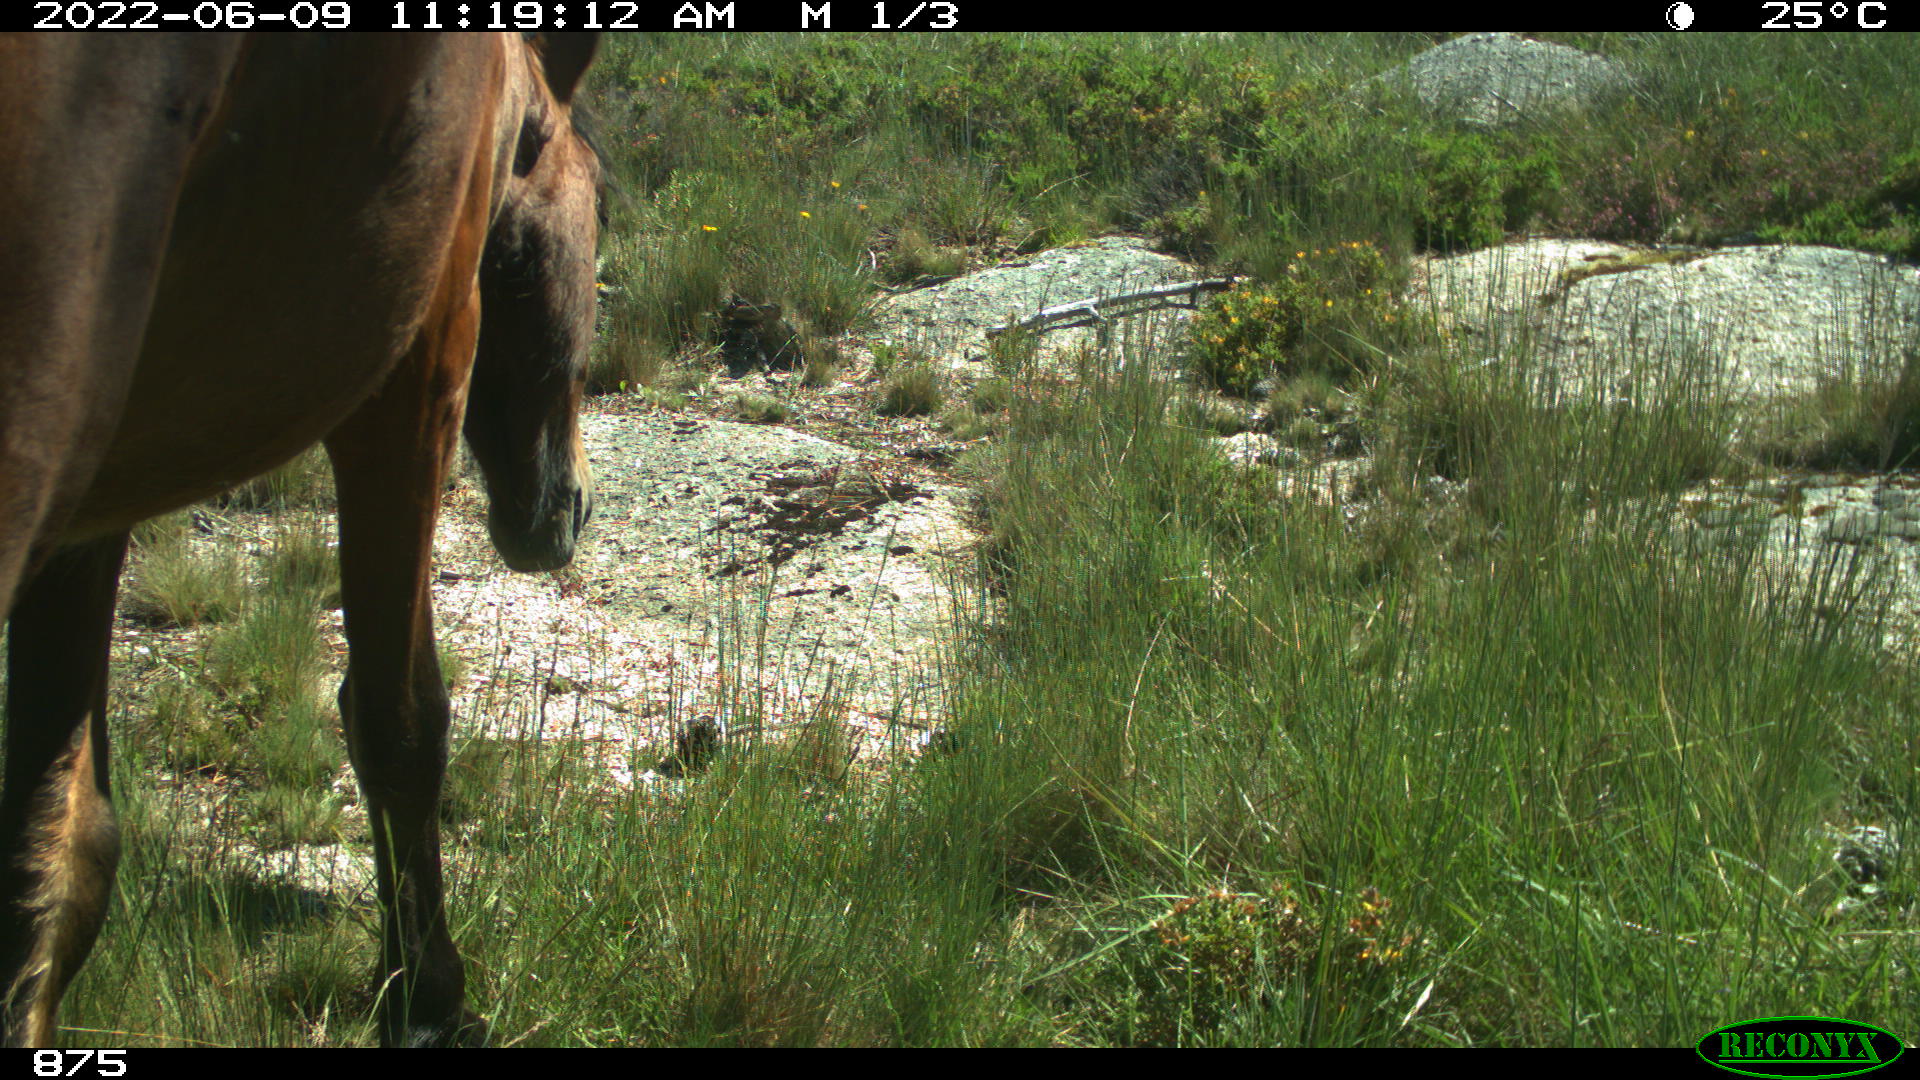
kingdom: Animalia
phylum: Chordata
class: Mammalia
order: Perissodactyla
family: Equidae
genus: Equus
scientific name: Equus caballus
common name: Horse
